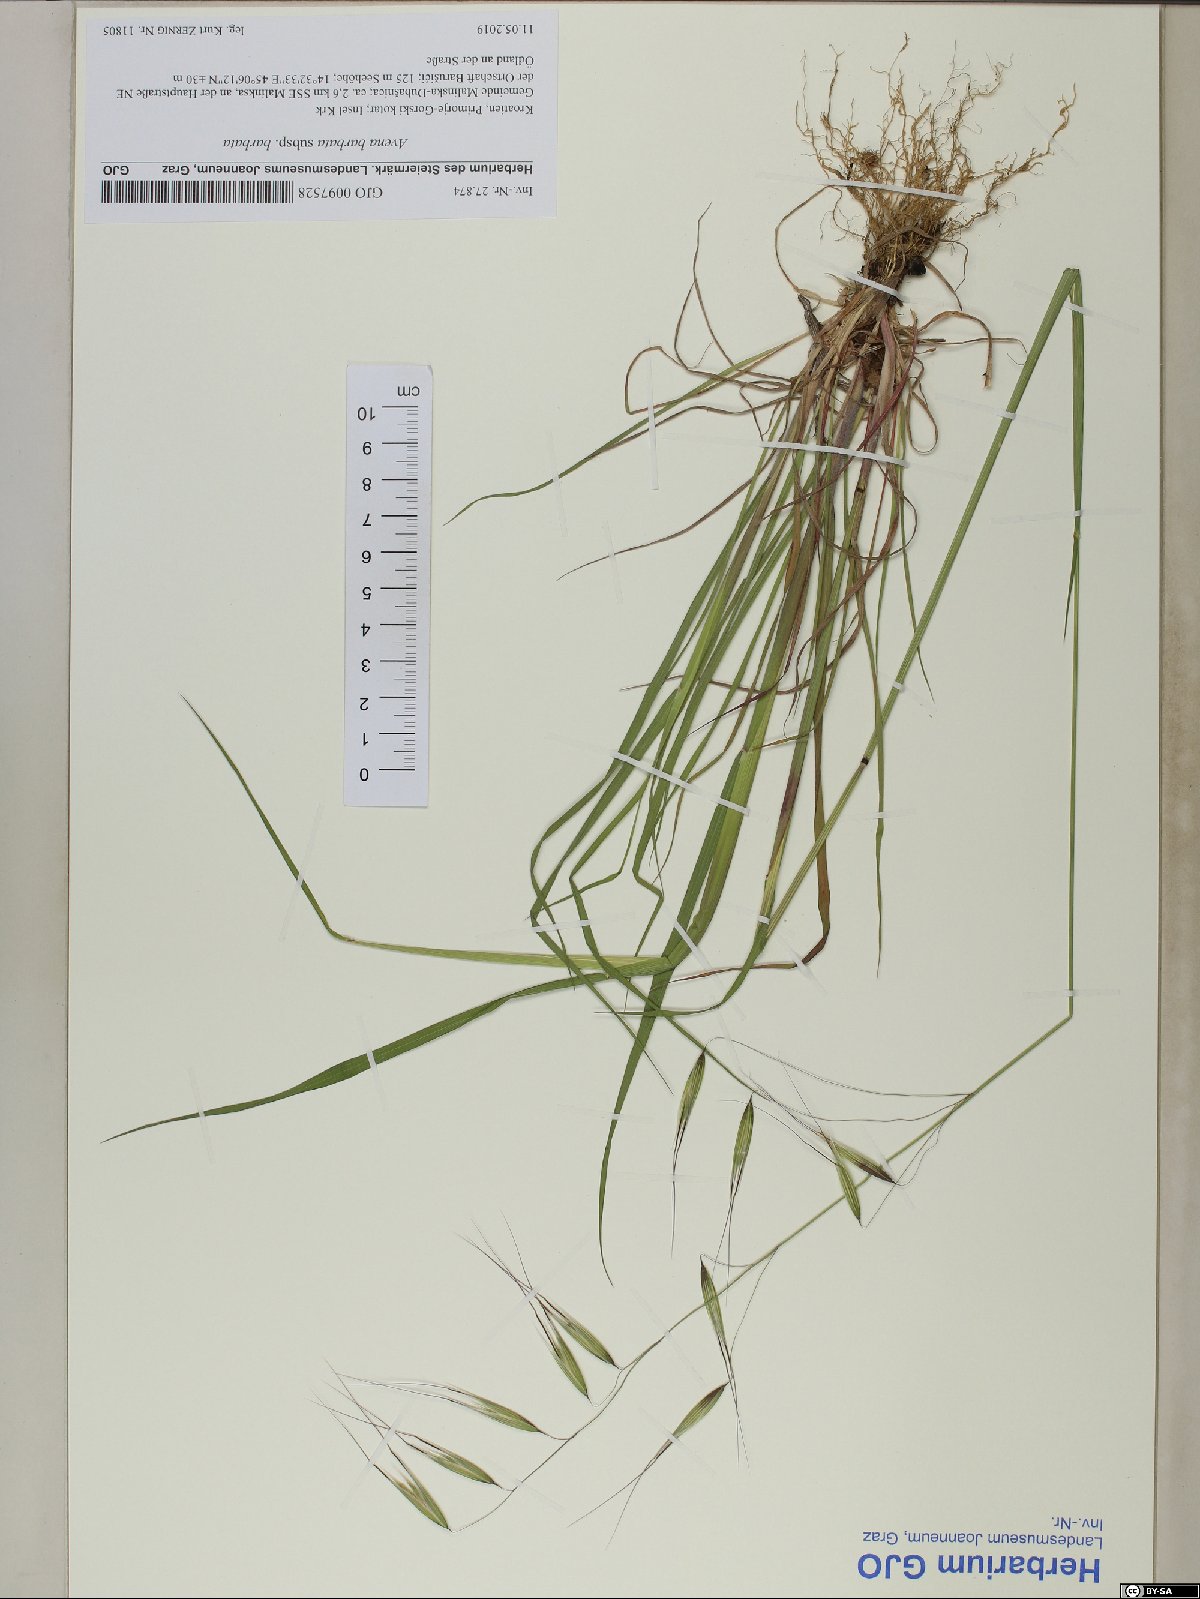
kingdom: Plantae
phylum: Tracheophyta
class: Liliopsida
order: Poales
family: Poaceae
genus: Avena
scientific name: Avena barbata
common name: Slender oat
